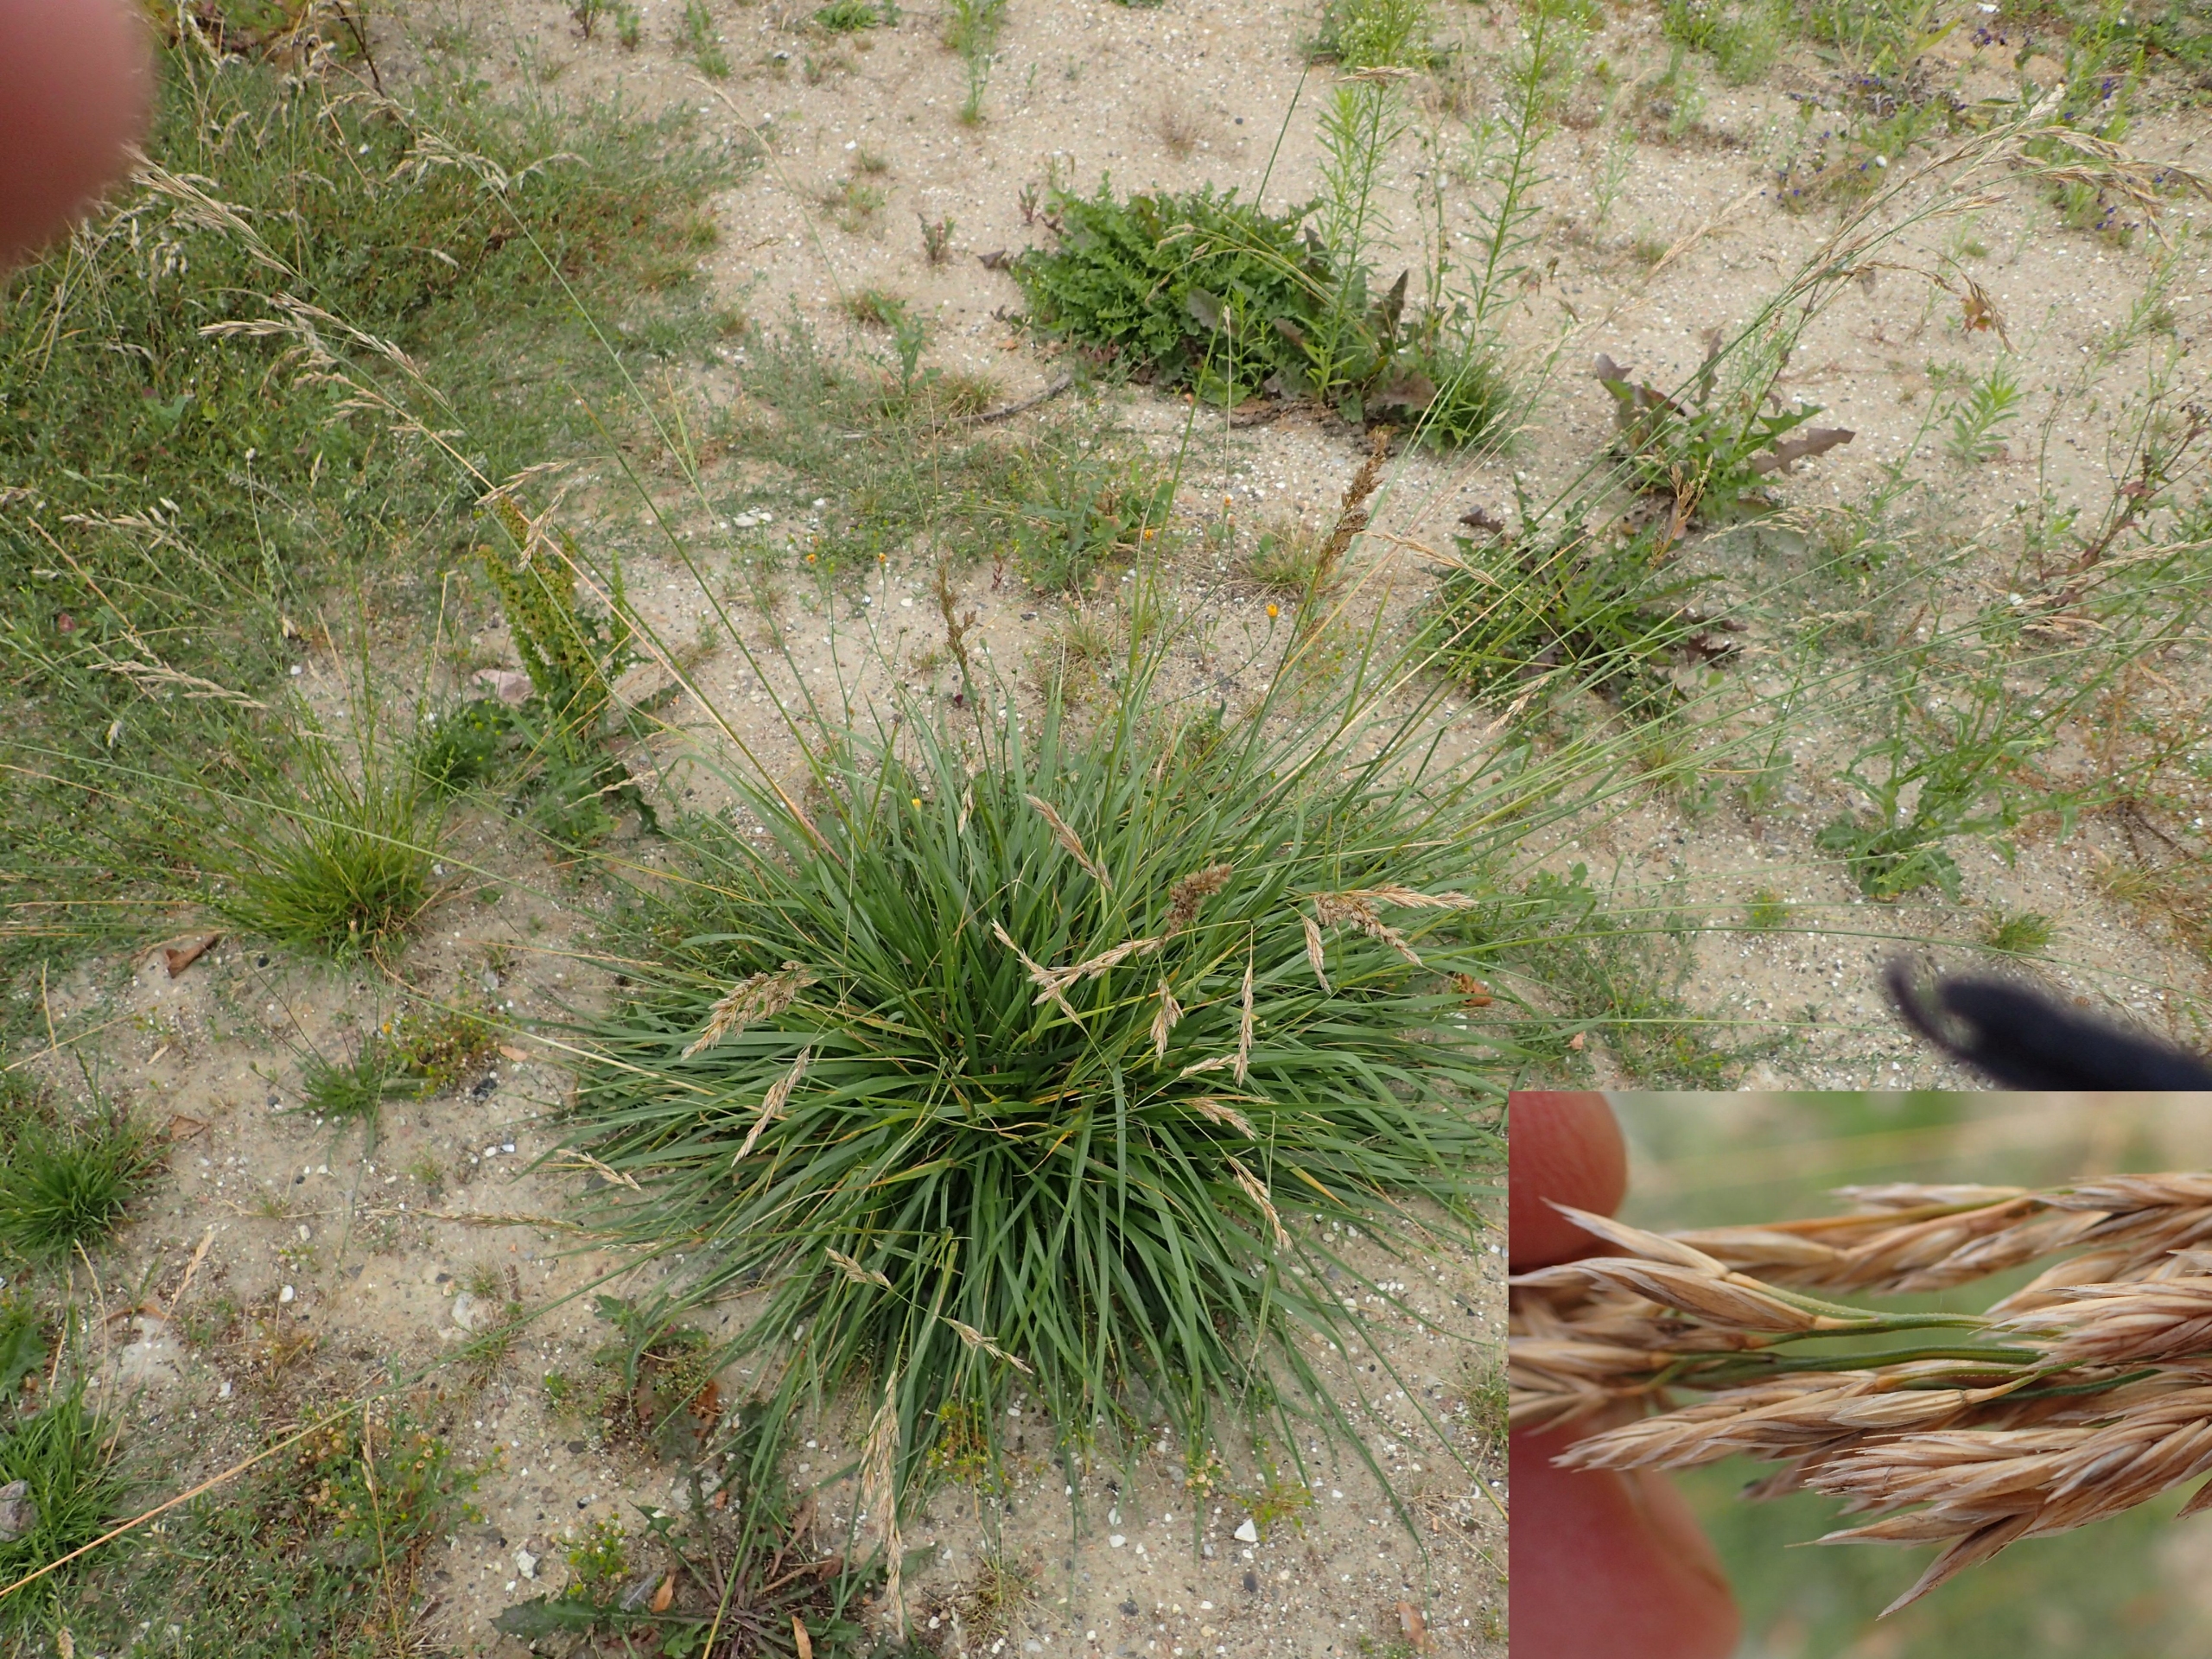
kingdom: Plantae
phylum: Tracheophyta
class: Liliopsida
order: Poales
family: Poaceae
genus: Lolium
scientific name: Lolium arundinaceum
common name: Strand-svingel
